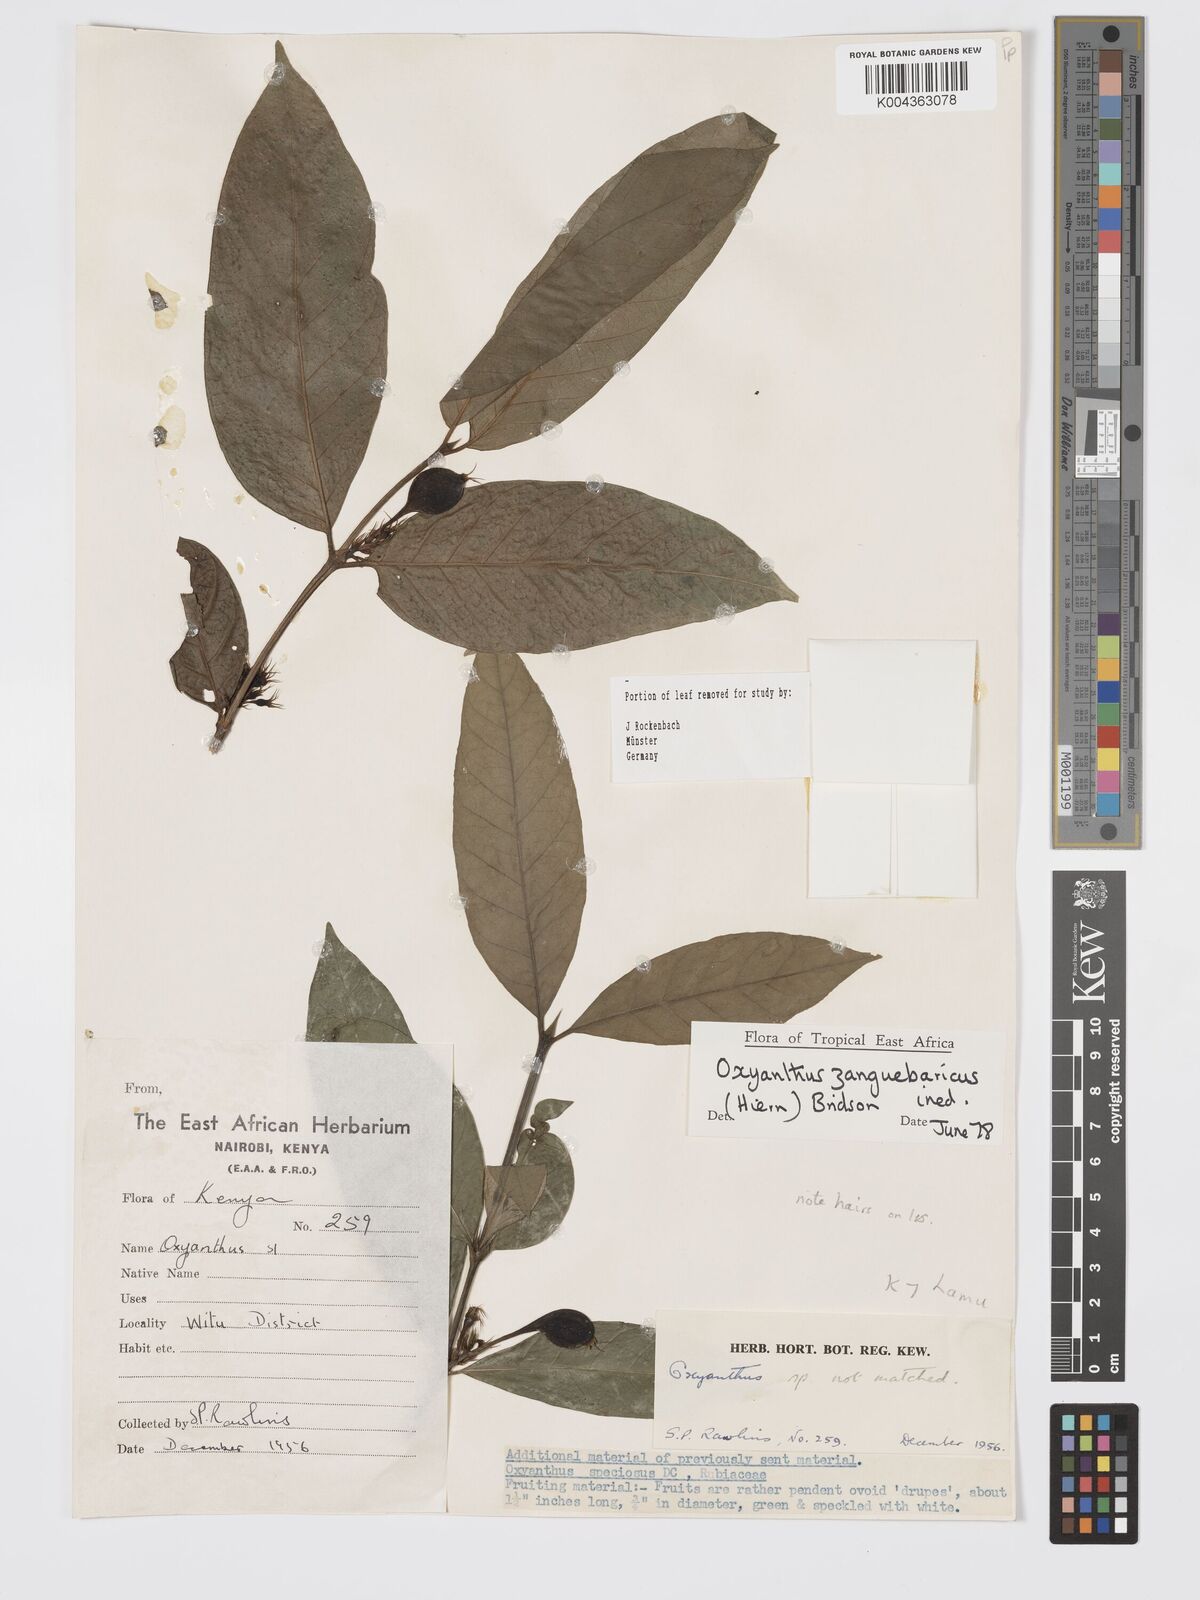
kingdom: Plantae
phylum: Tracheophyta
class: Magnoliopsida
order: Gentianales
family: Rubiaceae
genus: Oxyanthus
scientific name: Oxyanthus zanguebaricus
